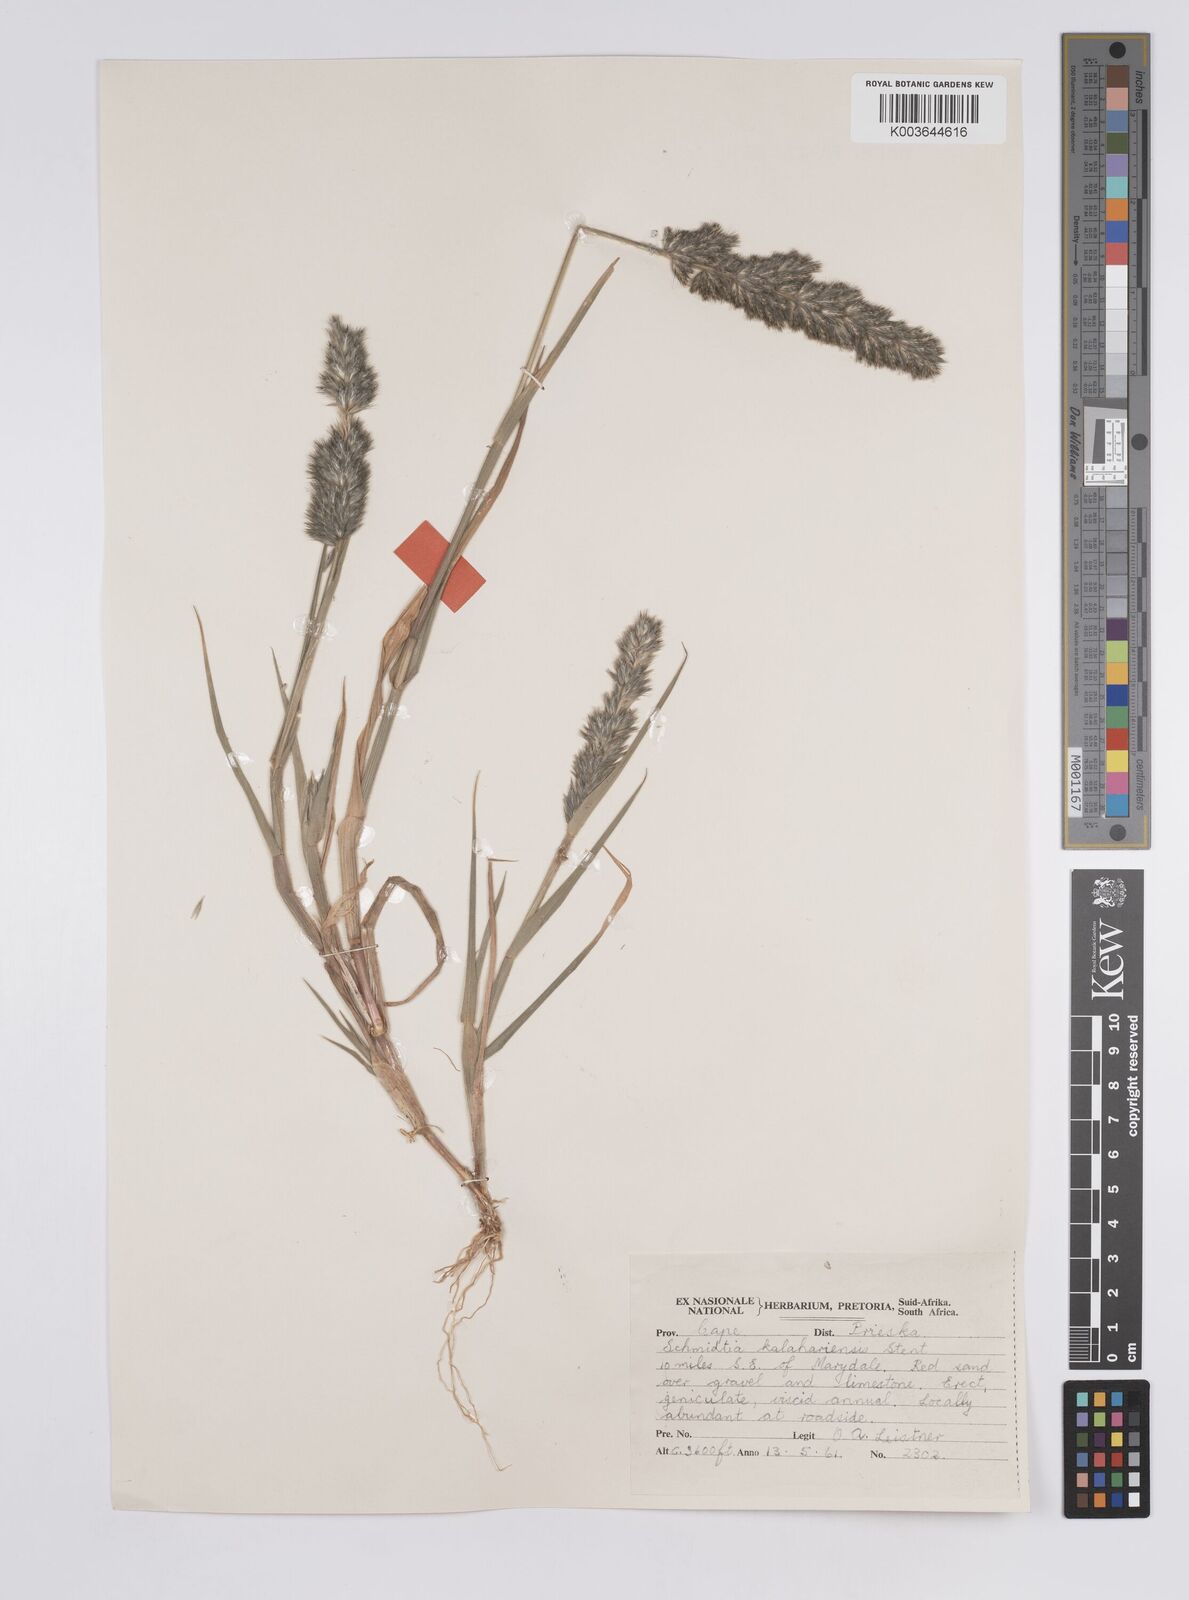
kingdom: Plantae
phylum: Tracheophyta
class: Liliopsida
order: Poales
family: Poaceae
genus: Schmidtia
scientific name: Schmidtia kalahariensis
